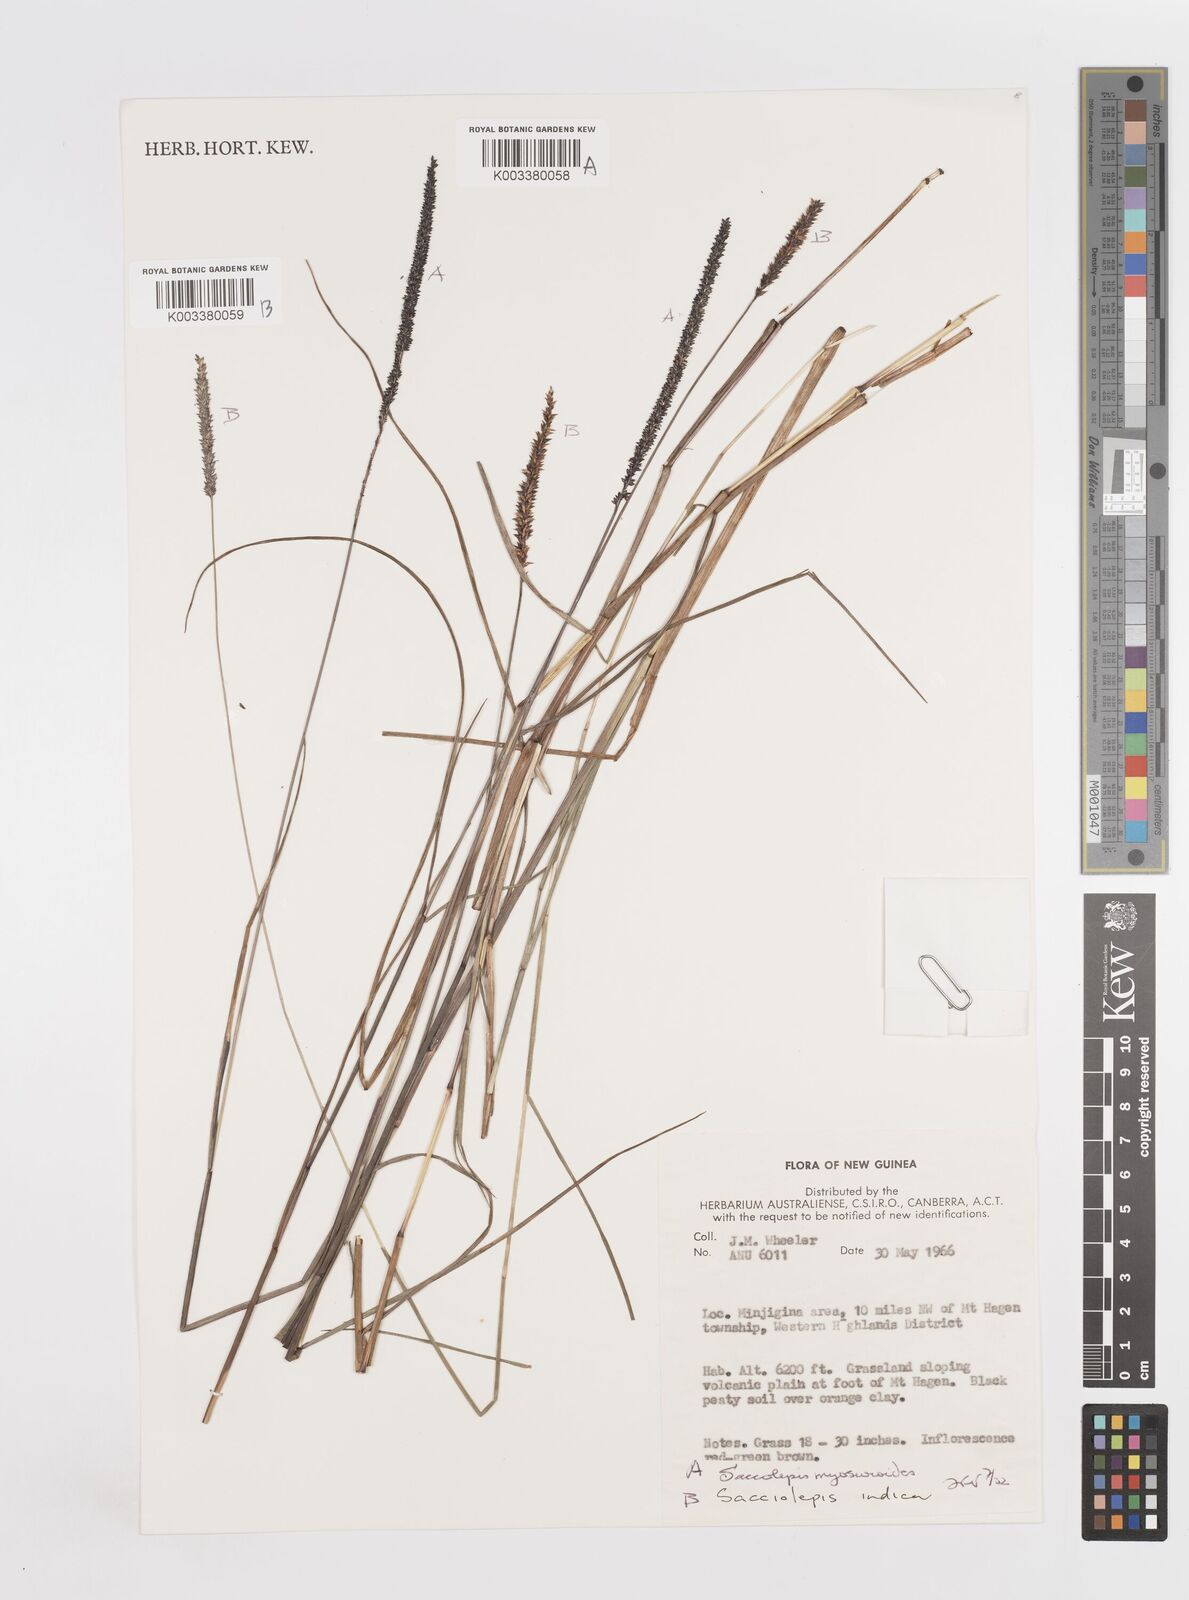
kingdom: Plantae
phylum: Tracheophyta
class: Liliopsida
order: Poales
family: Poaceae
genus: Sacciolepis
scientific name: Sacciolepis myosuroides
